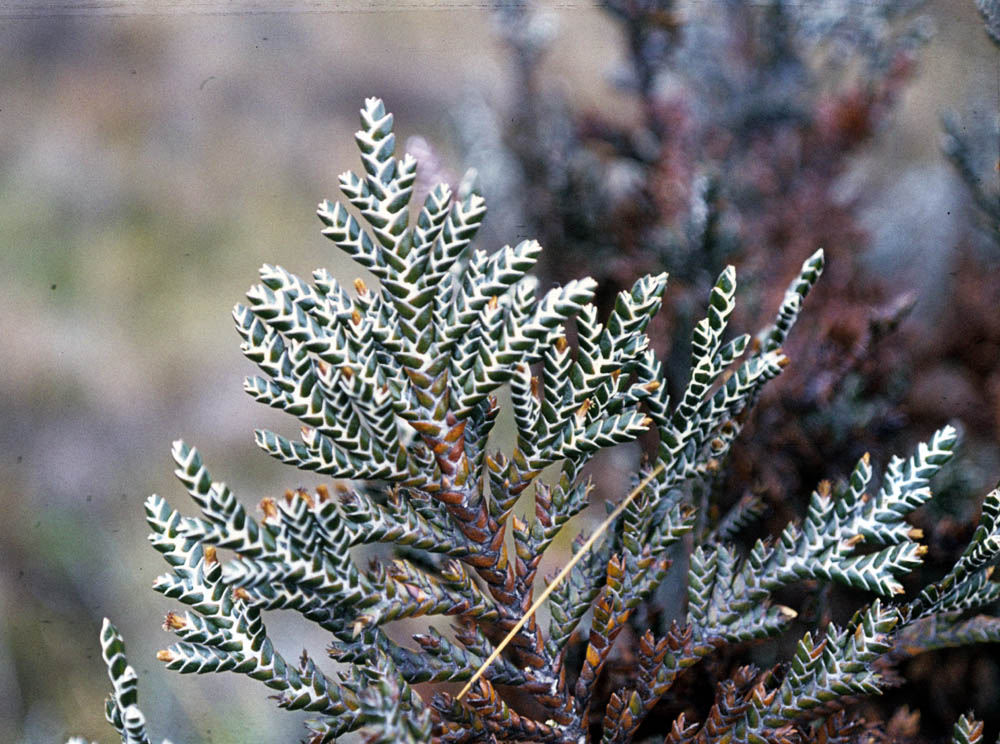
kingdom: Plantae
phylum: Tracheophyta
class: Magnoliopsida
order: Asterales
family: Asteraceae
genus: Andicolea
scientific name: Andicolea antisanensis
